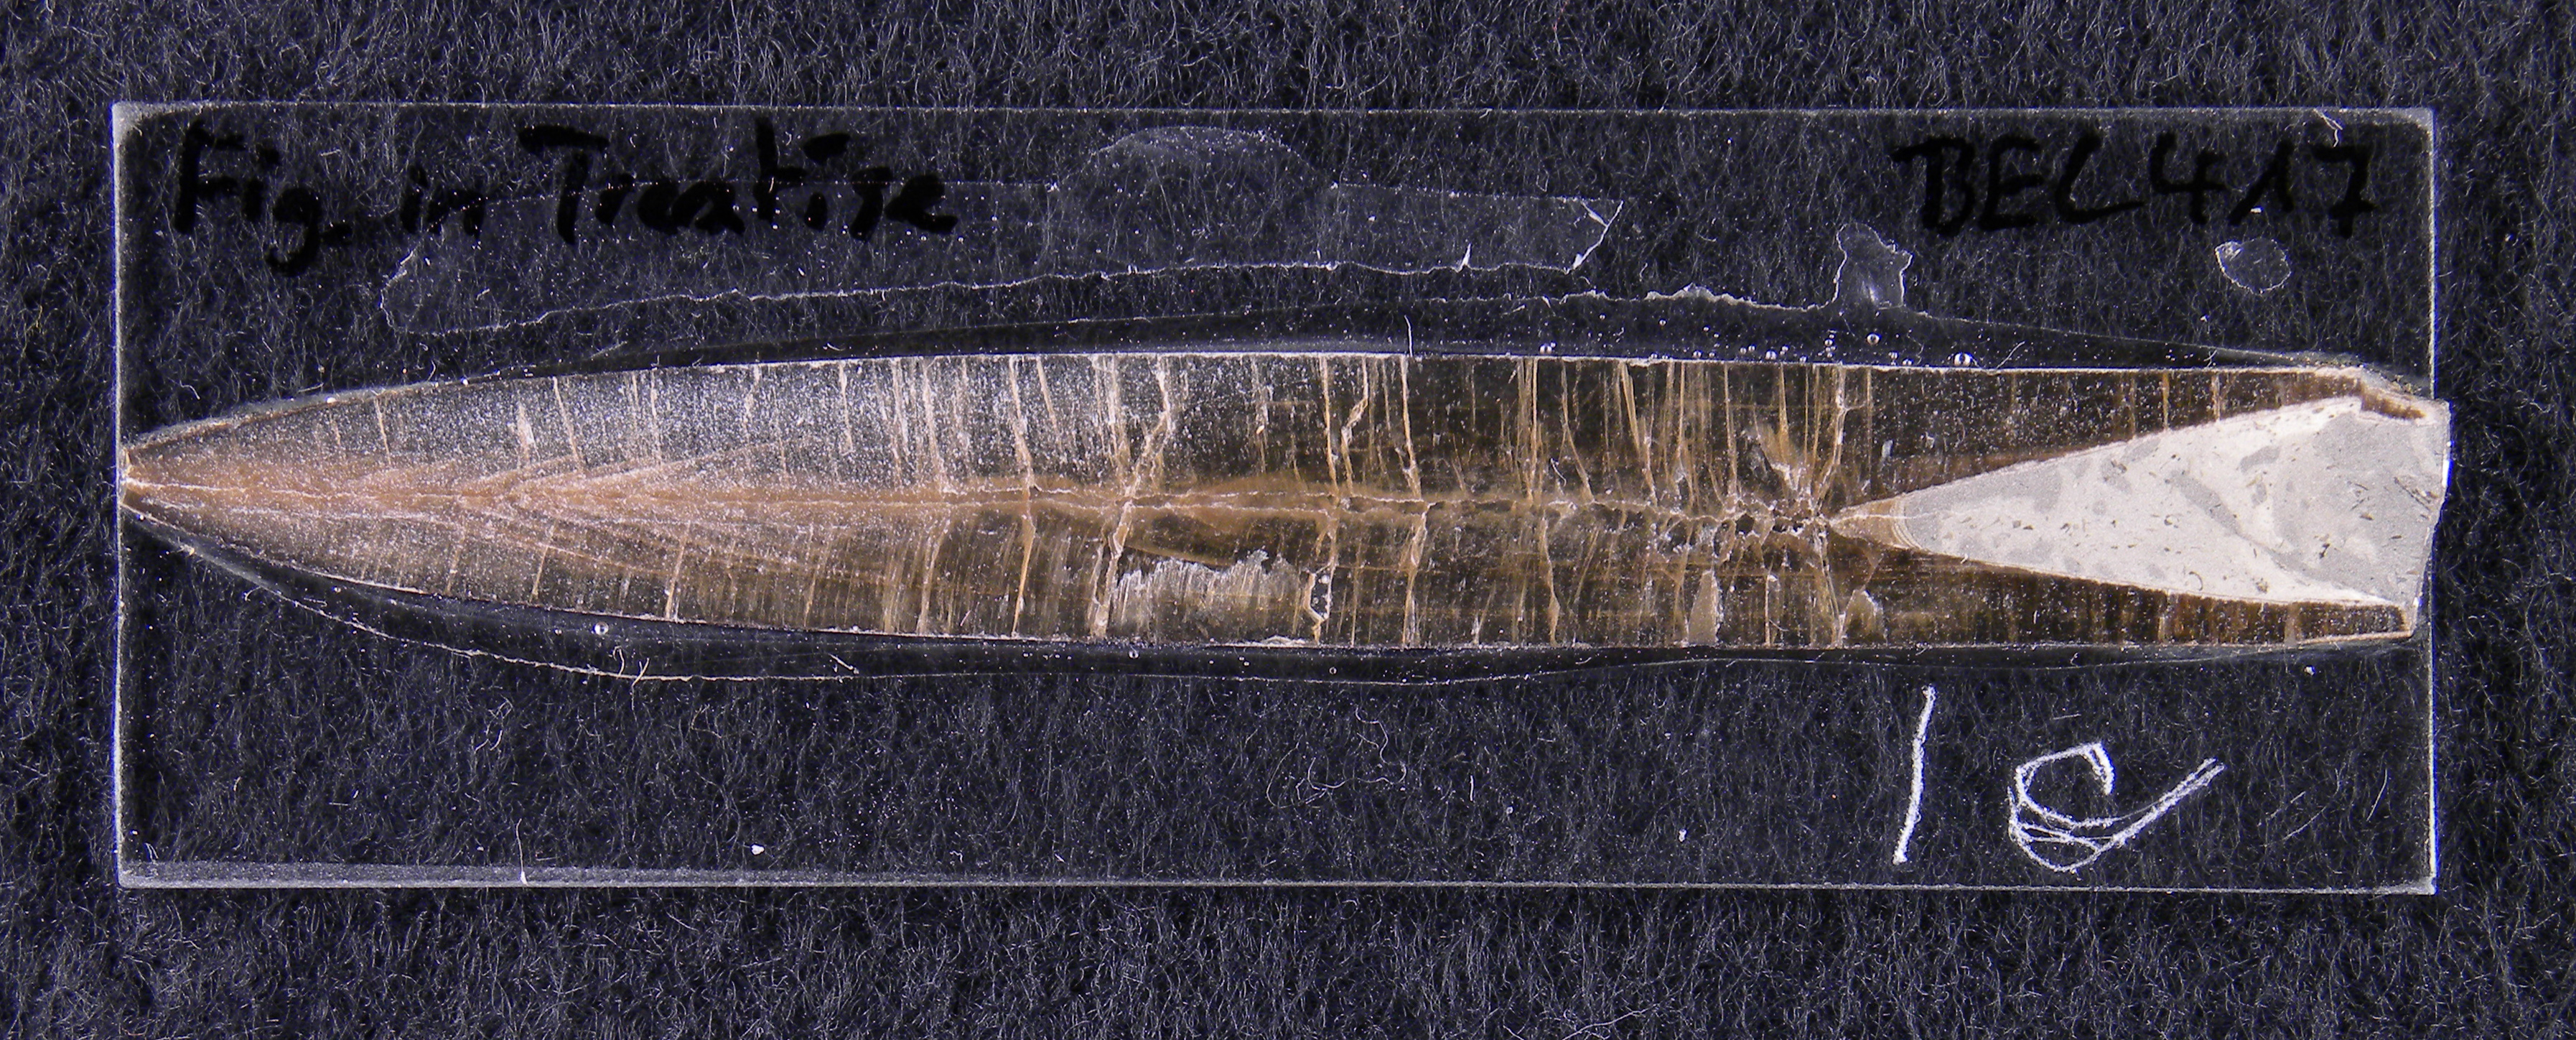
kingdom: Animalia
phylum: Mollusca
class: Cephalopoda
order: Belemnitida
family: Passaloteuthidae
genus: Pseudohastites
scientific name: Pseudohastites
